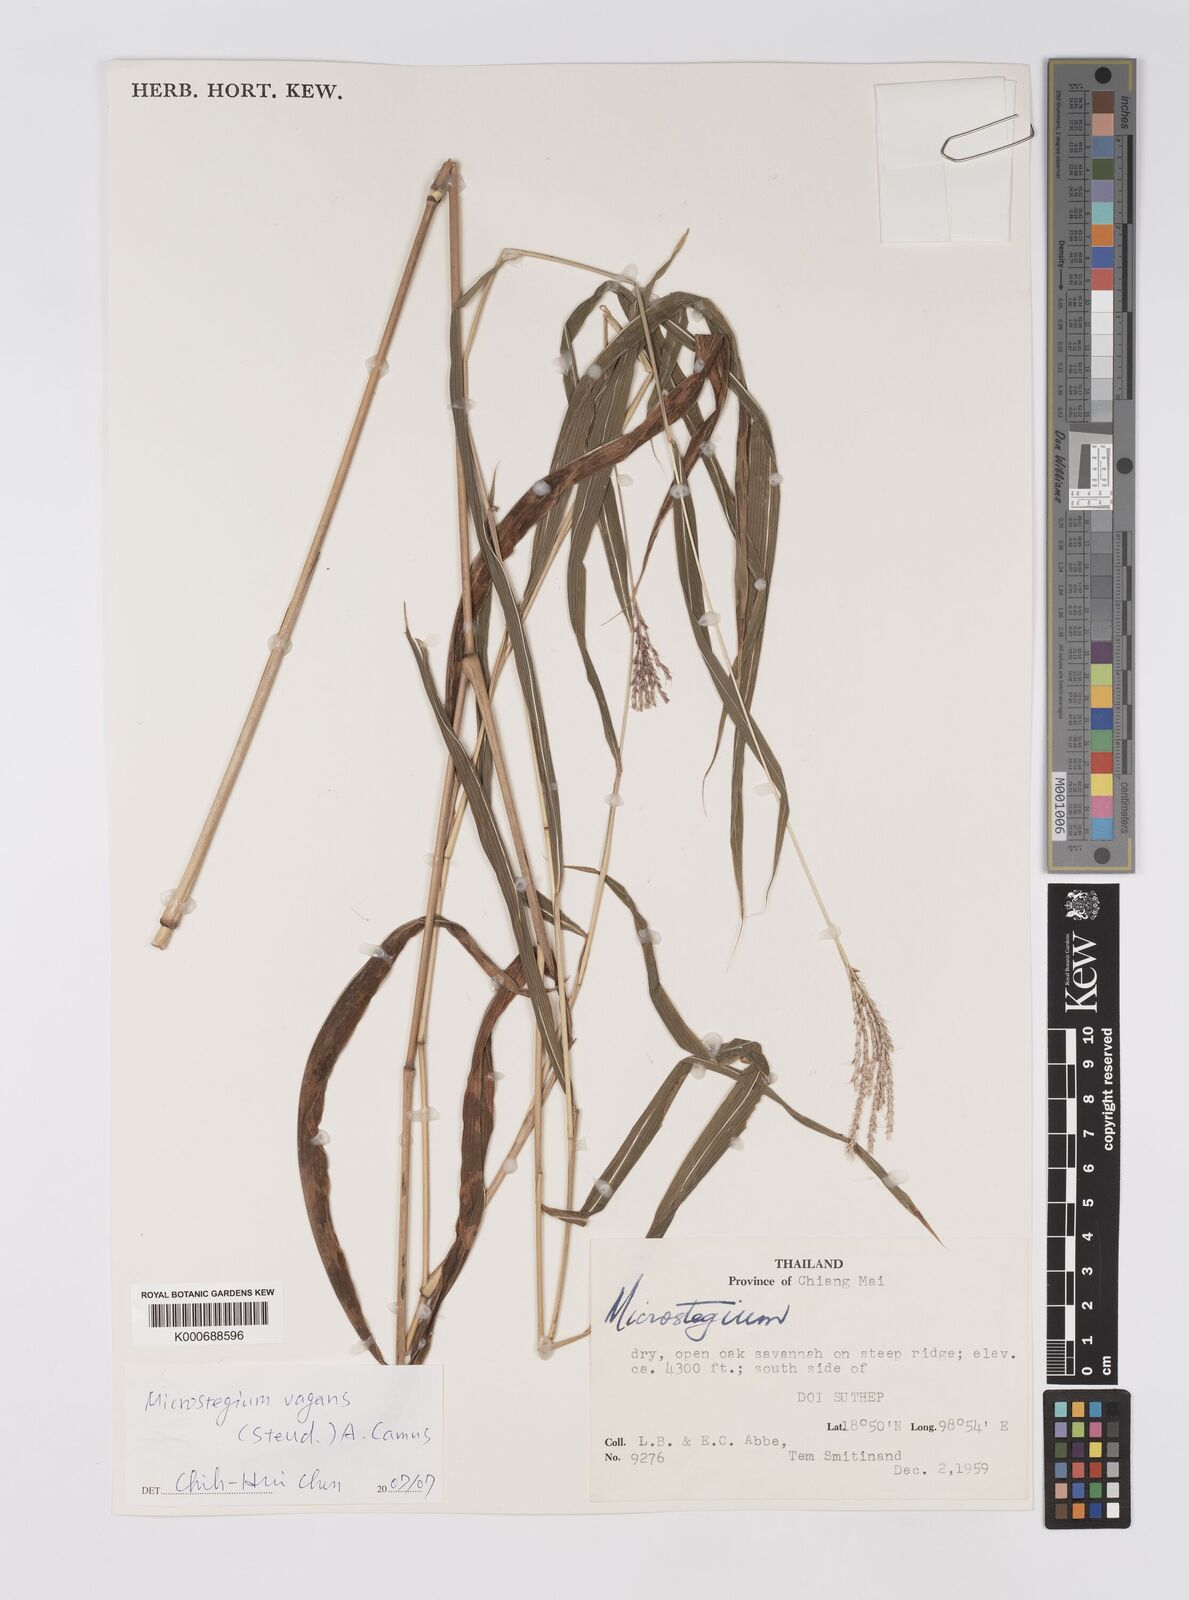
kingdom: Plantae
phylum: Tracheophyta
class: Liliopsida
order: Poales
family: Poaceae
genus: Microstegium
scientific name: Microstegium fasciculatum
